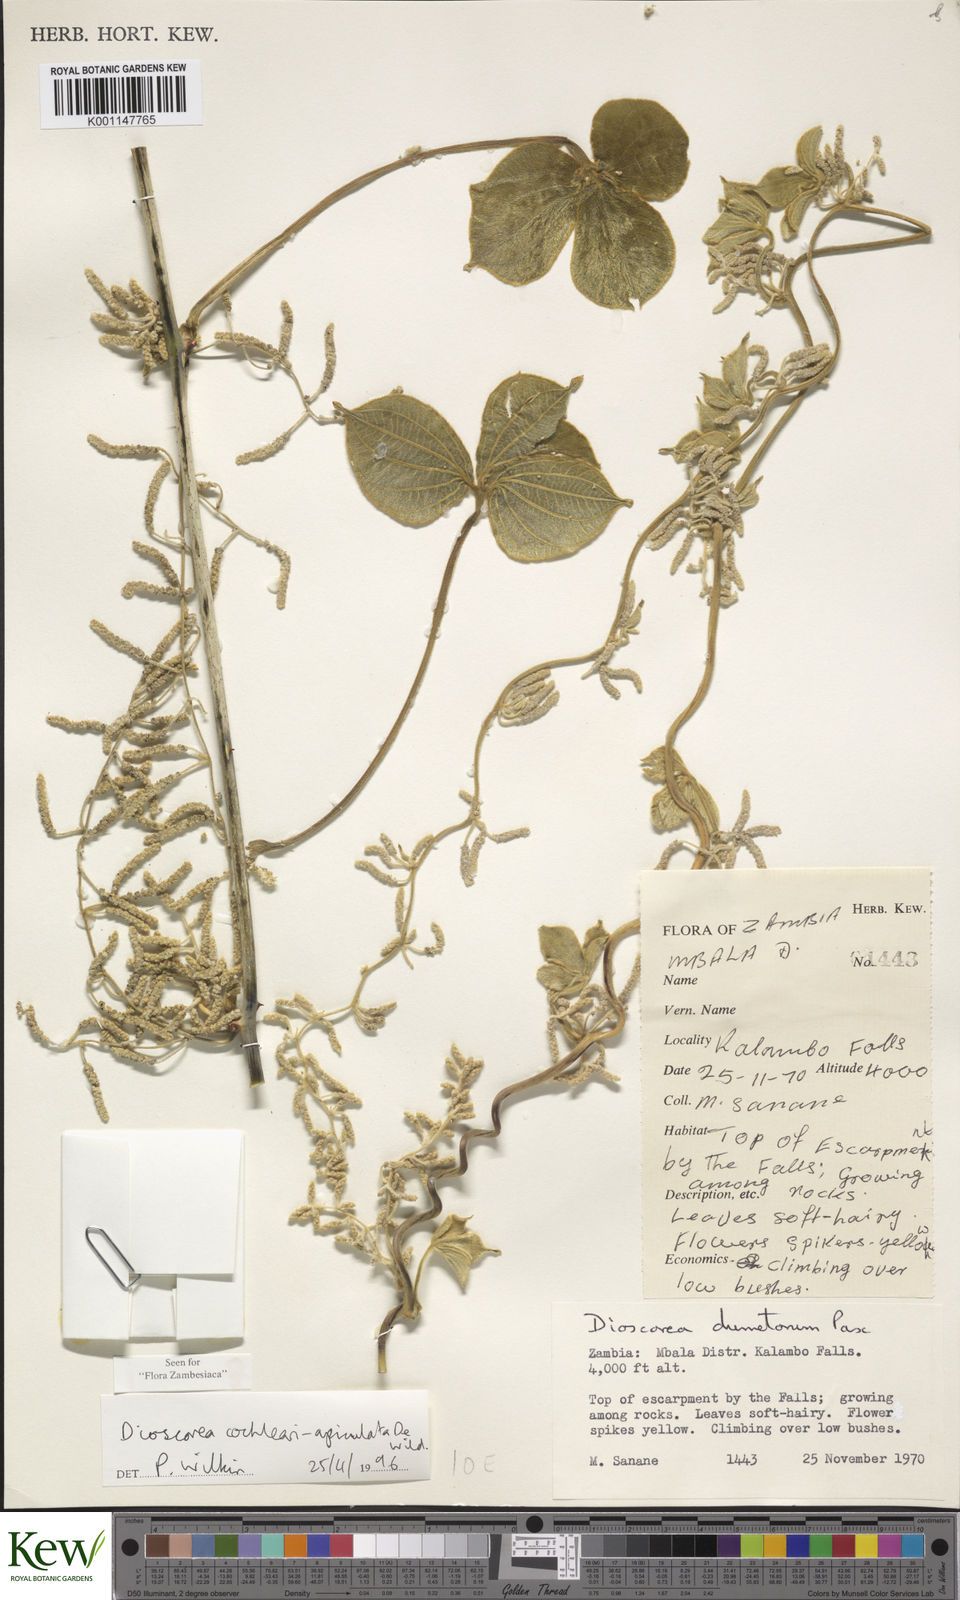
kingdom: Plantae
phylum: Tracheophyta
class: Liliopsida
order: Dioscoreales
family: Dioscoreaceae
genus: Dioscorea
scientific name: Dioscorea cochleariapiculata
